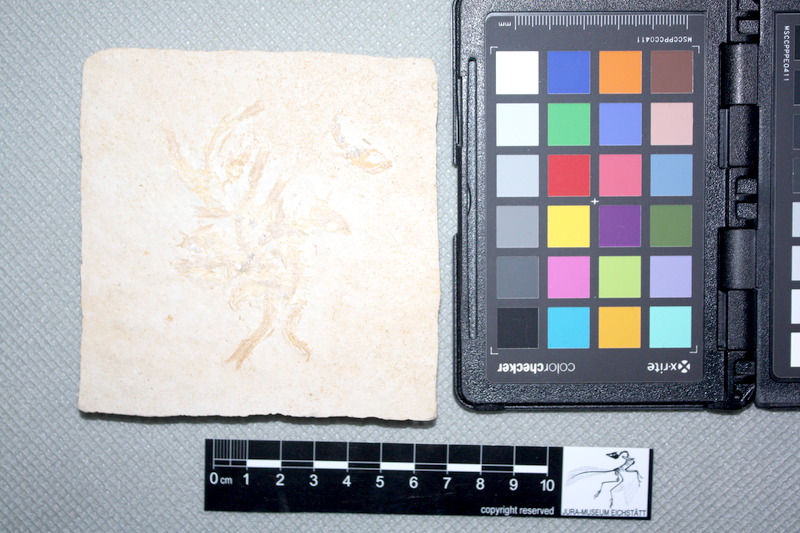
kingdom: Animalia
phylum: Chordata
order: Salmoniformes
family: Orthogonikleithridae
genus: Leptolepides
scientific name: Leptolepides sprattiformis
